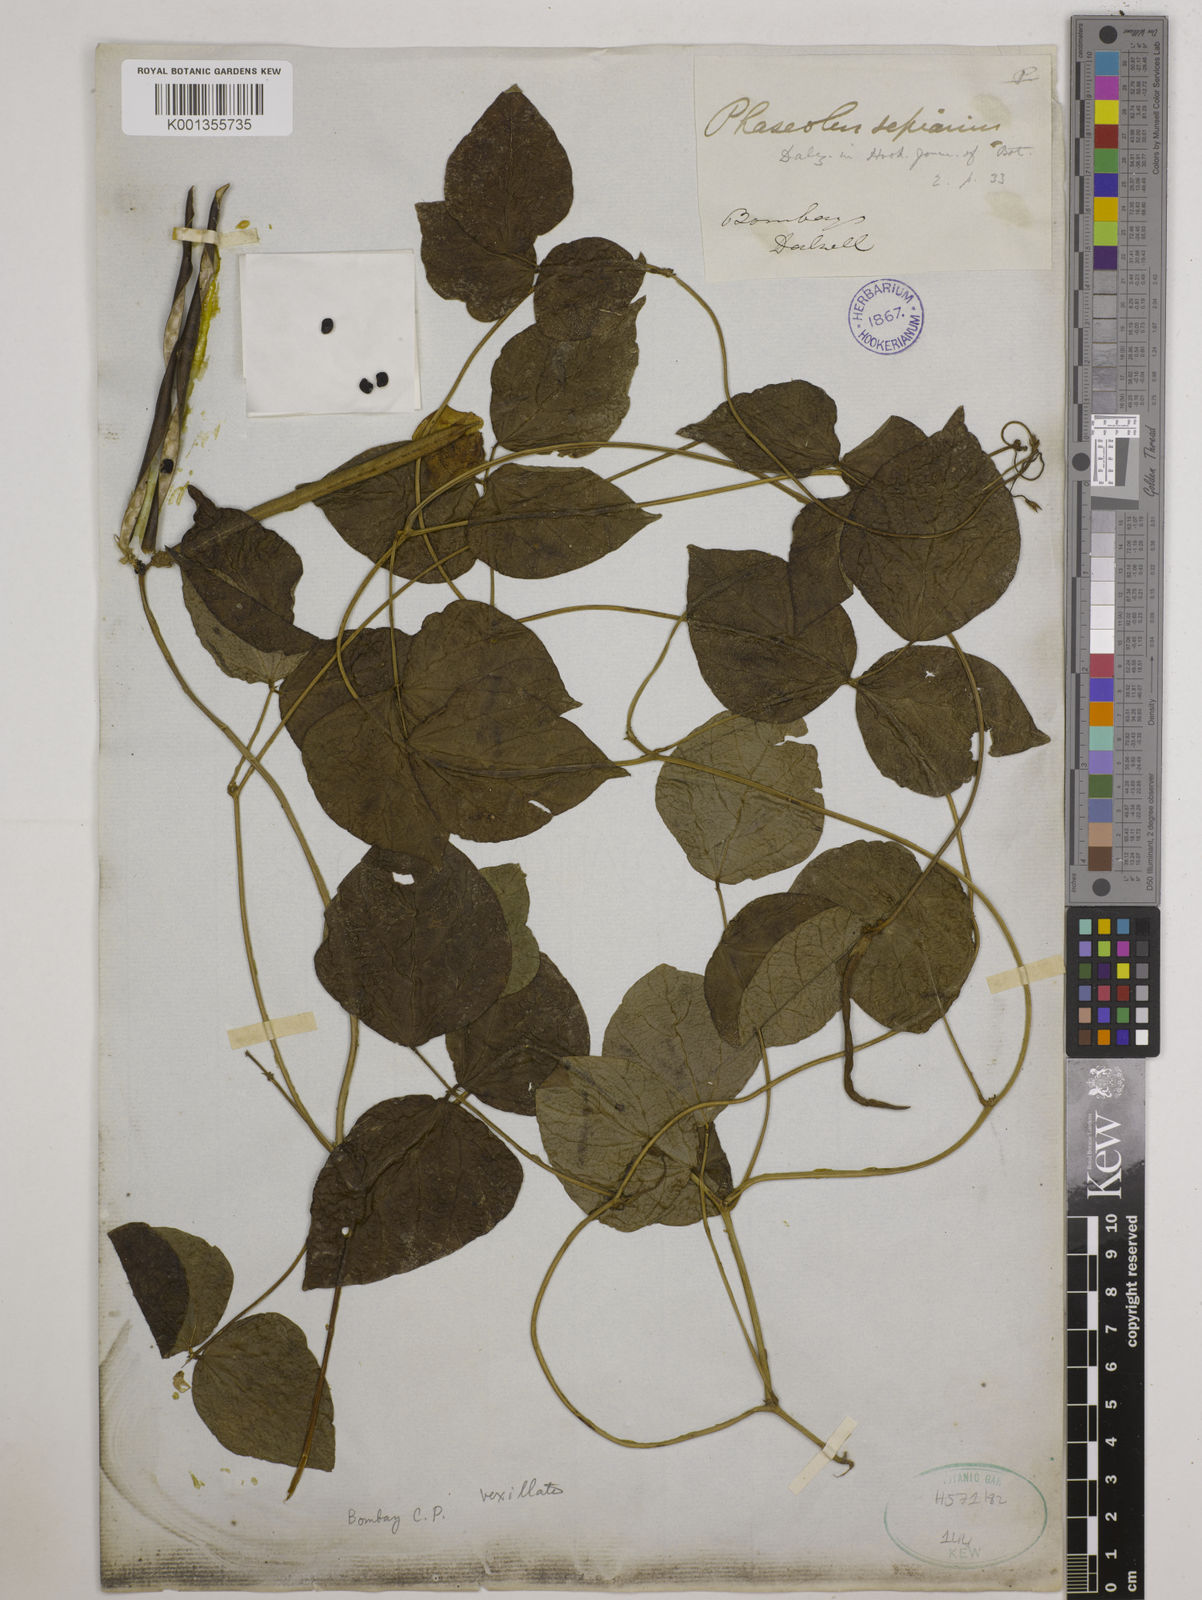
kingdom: Plantae
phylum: Tracheophyta
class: Magnoliopsida
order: Fabales
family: Fabaceae
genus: Vigna
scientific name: Vigna vexillata
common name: Zombi pea
